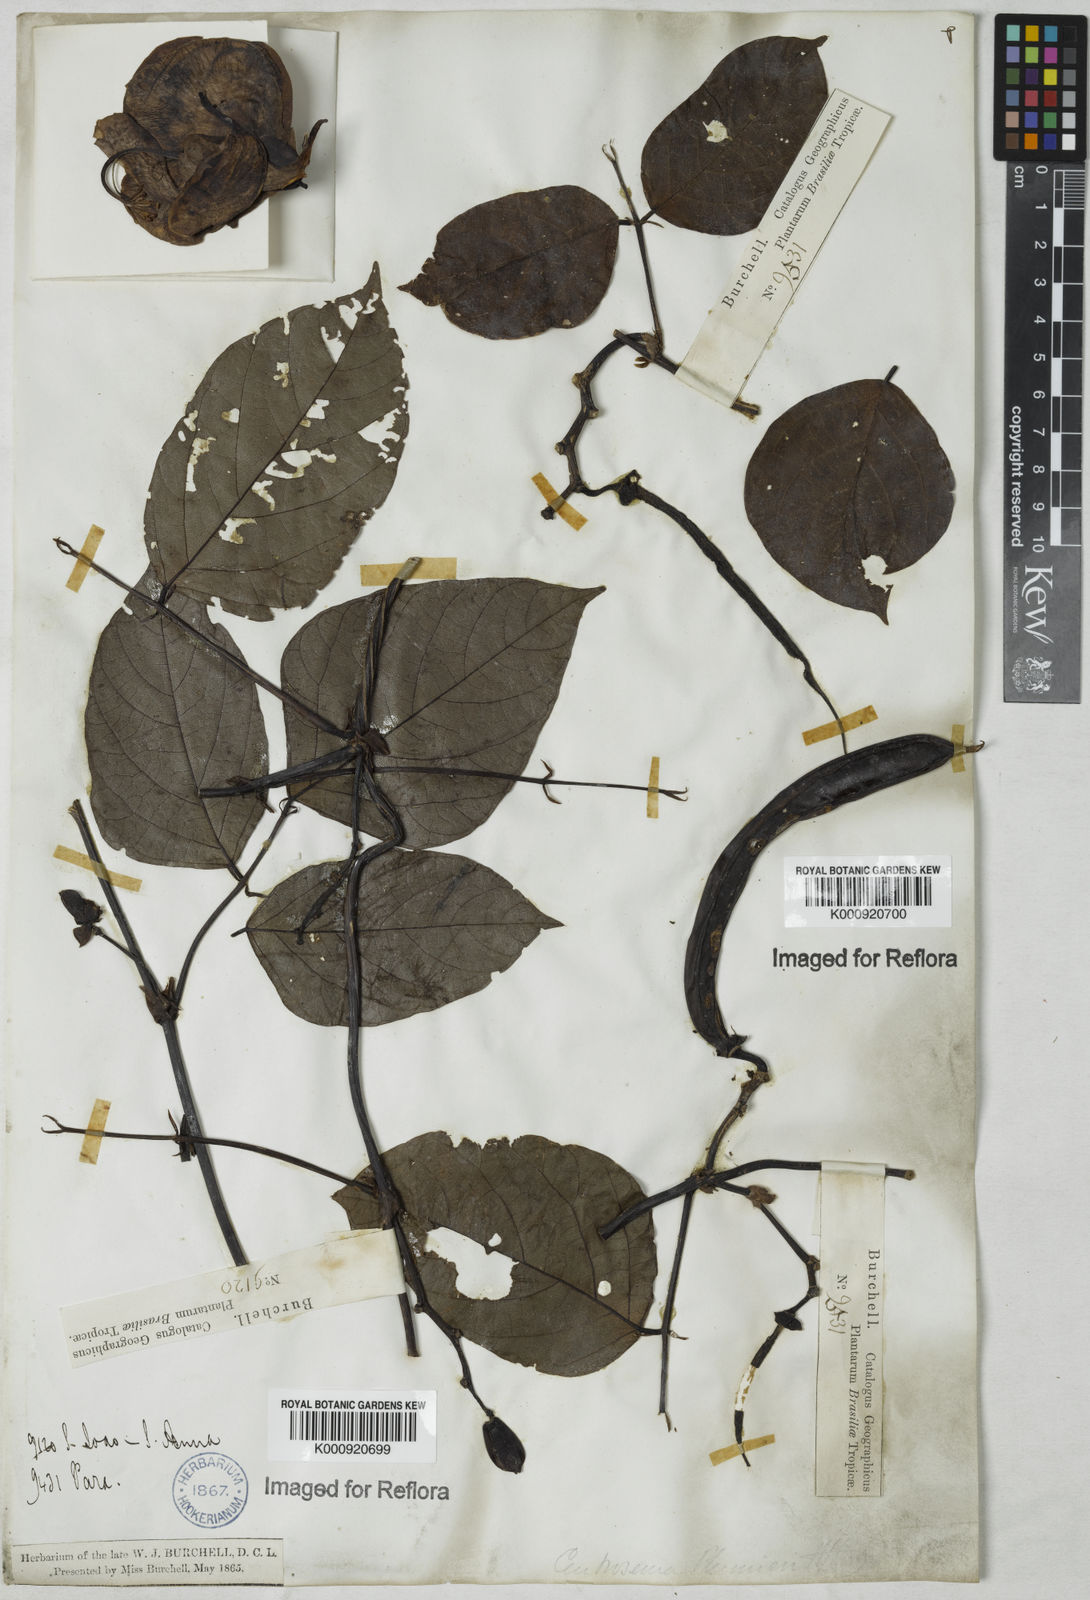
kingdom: Plantae
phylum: Tracheophyta
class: Magnoliopsida
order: Fabales
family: Fabaceae
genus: Centrosema
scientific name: Centrosema plumieri
